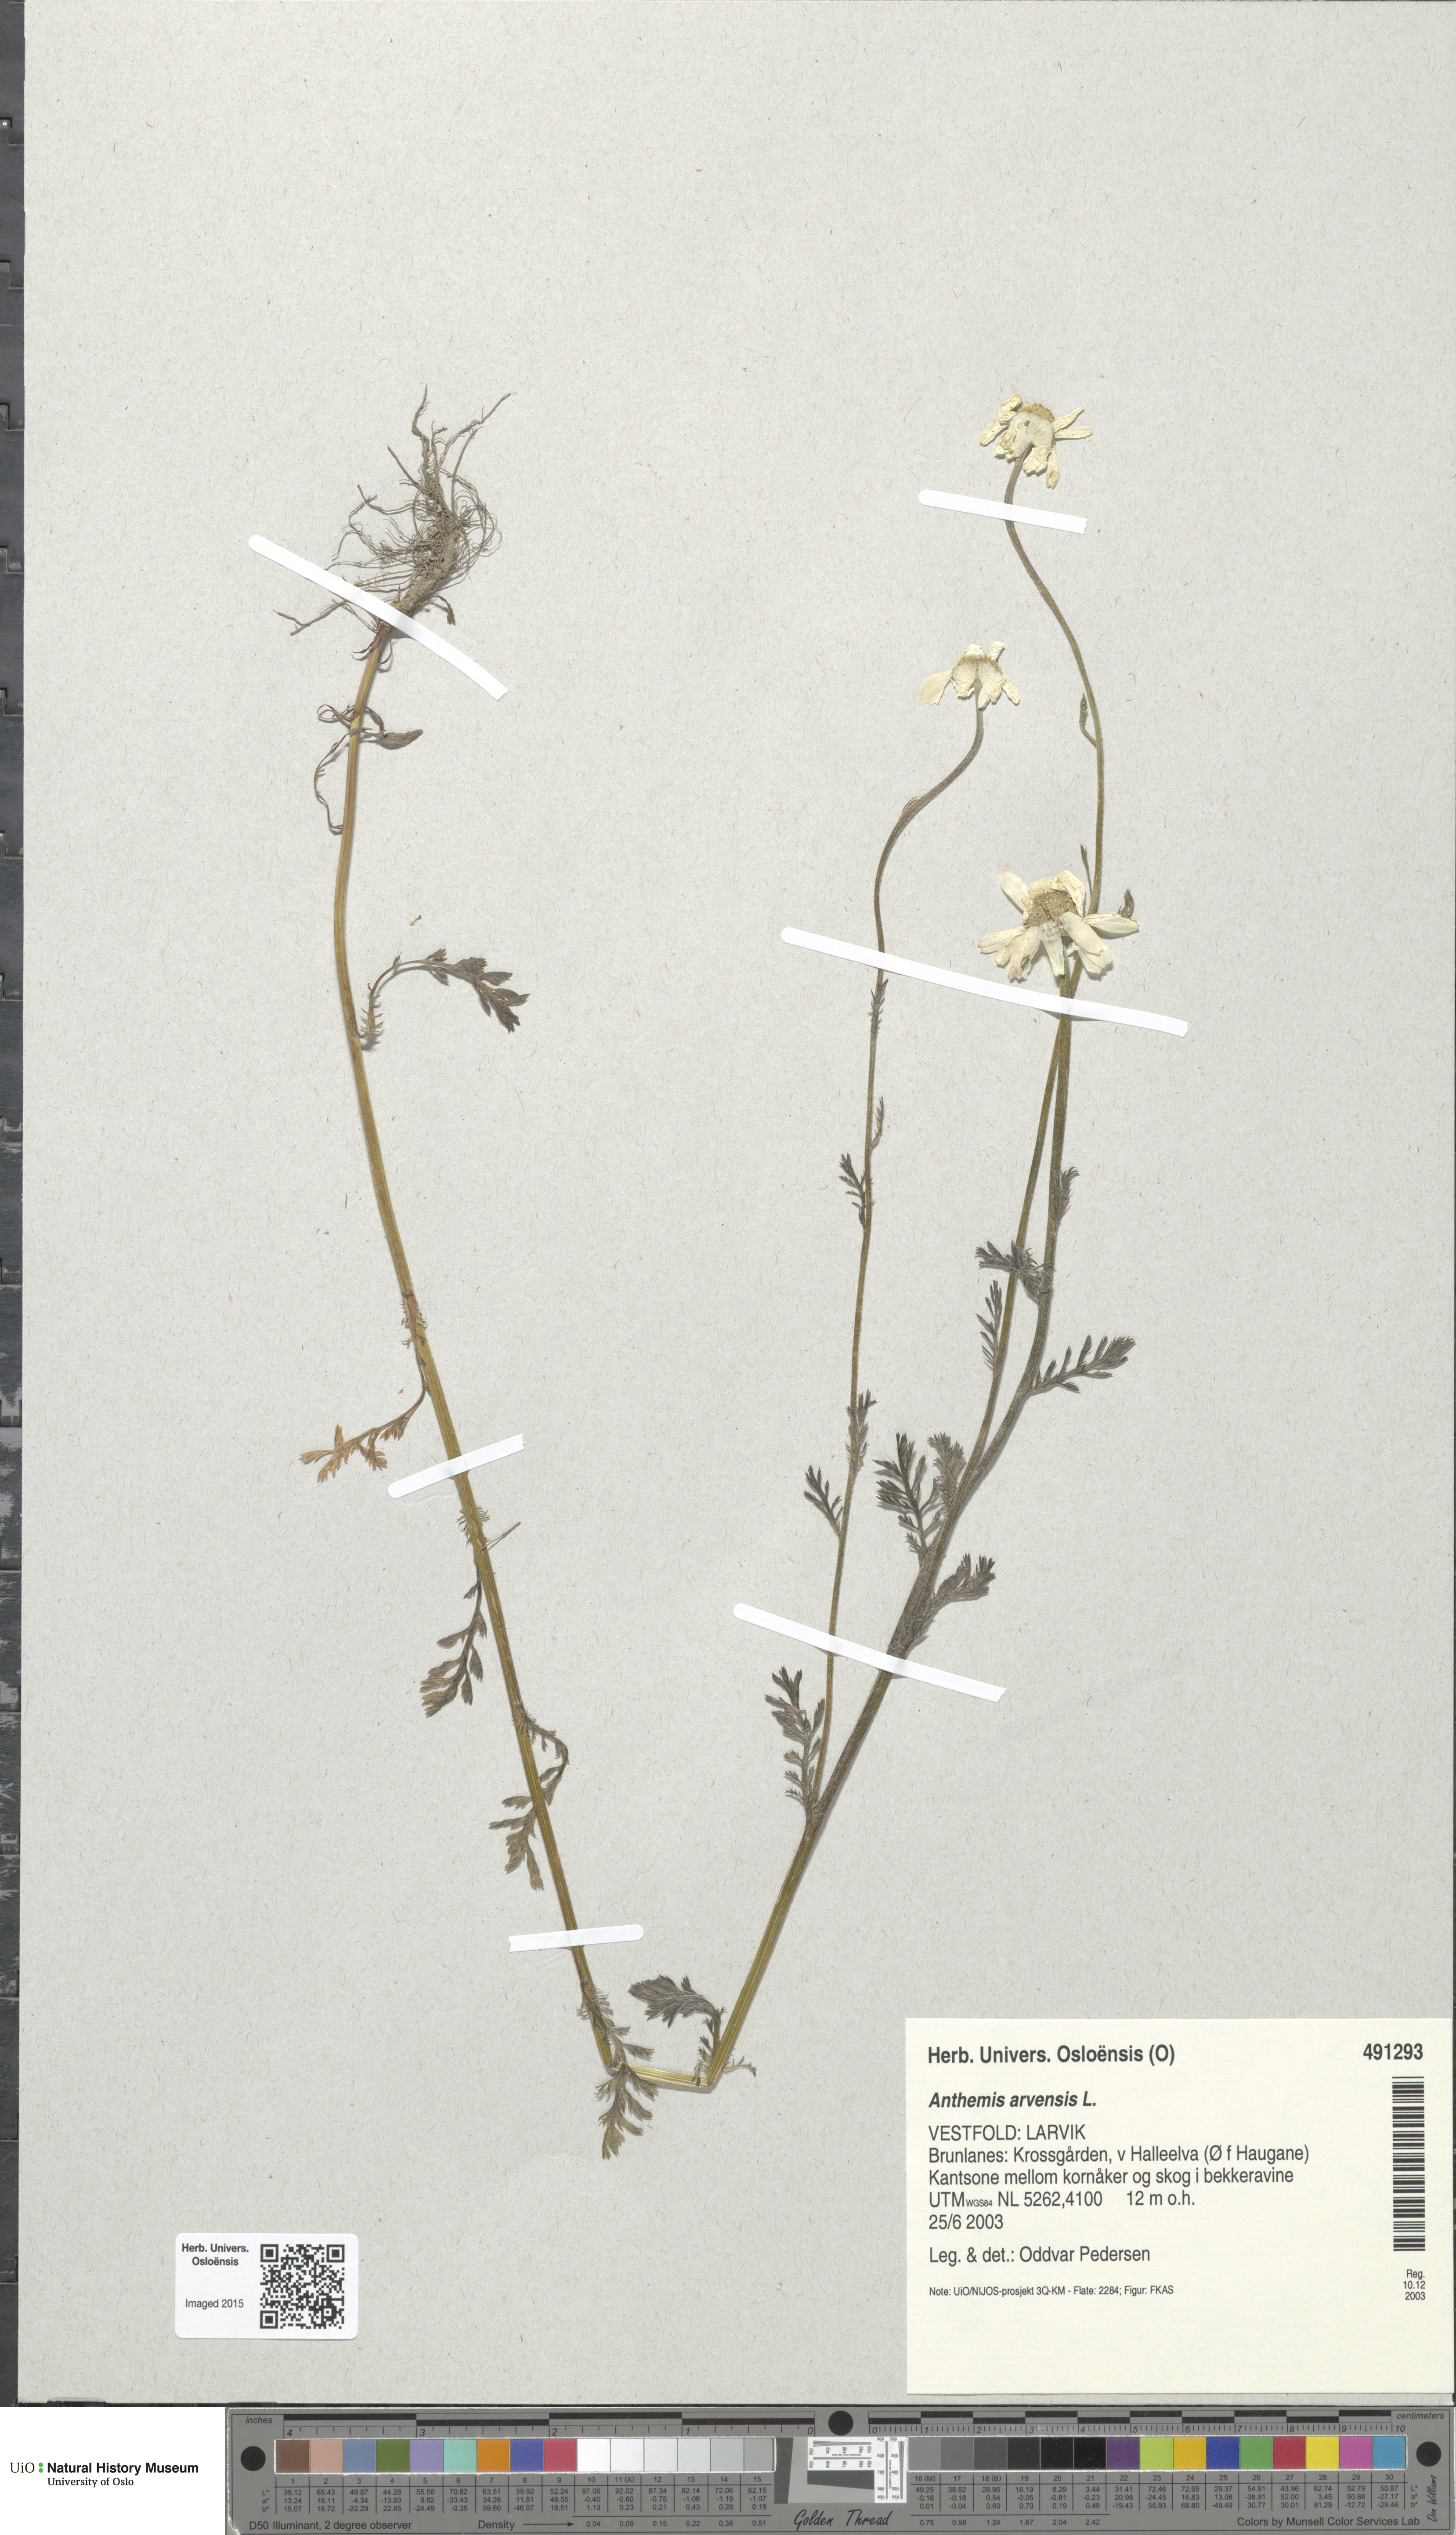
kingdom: Plantae
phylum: Tracheophyta
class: Magnoliopsida
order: Asterales
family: Asteraceae
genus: Anthemis
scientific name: Anthemis arvensis
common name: Corn chamomile
